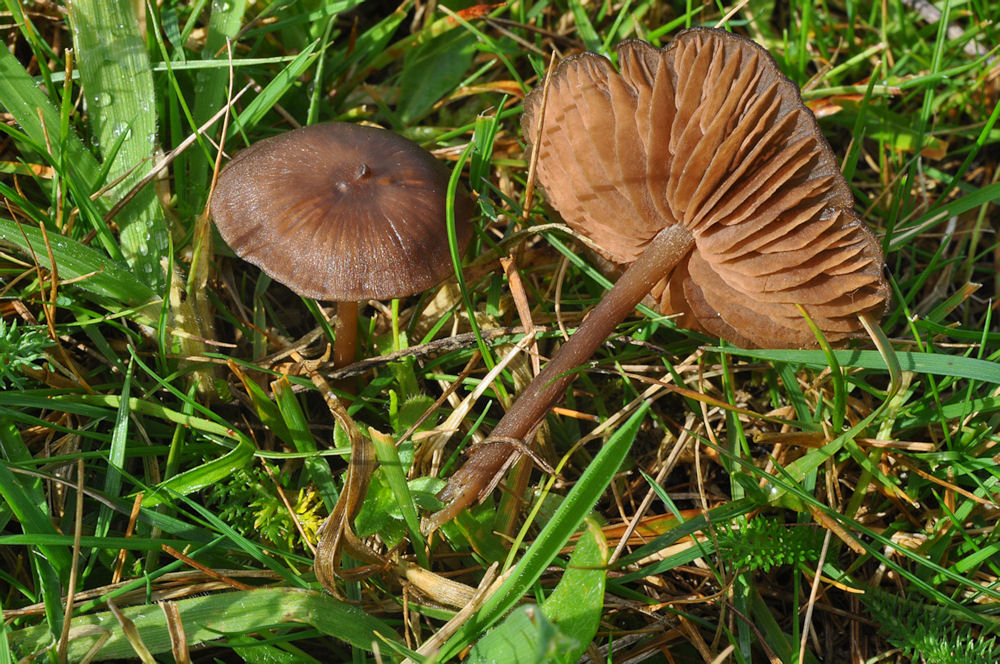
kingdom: Fungi
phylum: Basidiomycota
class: Agaricomycetes
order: Agaricales
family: Entolomataceae
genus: Entoloma
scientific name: Entoloma clandestinum
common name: tykbladet rødblad
